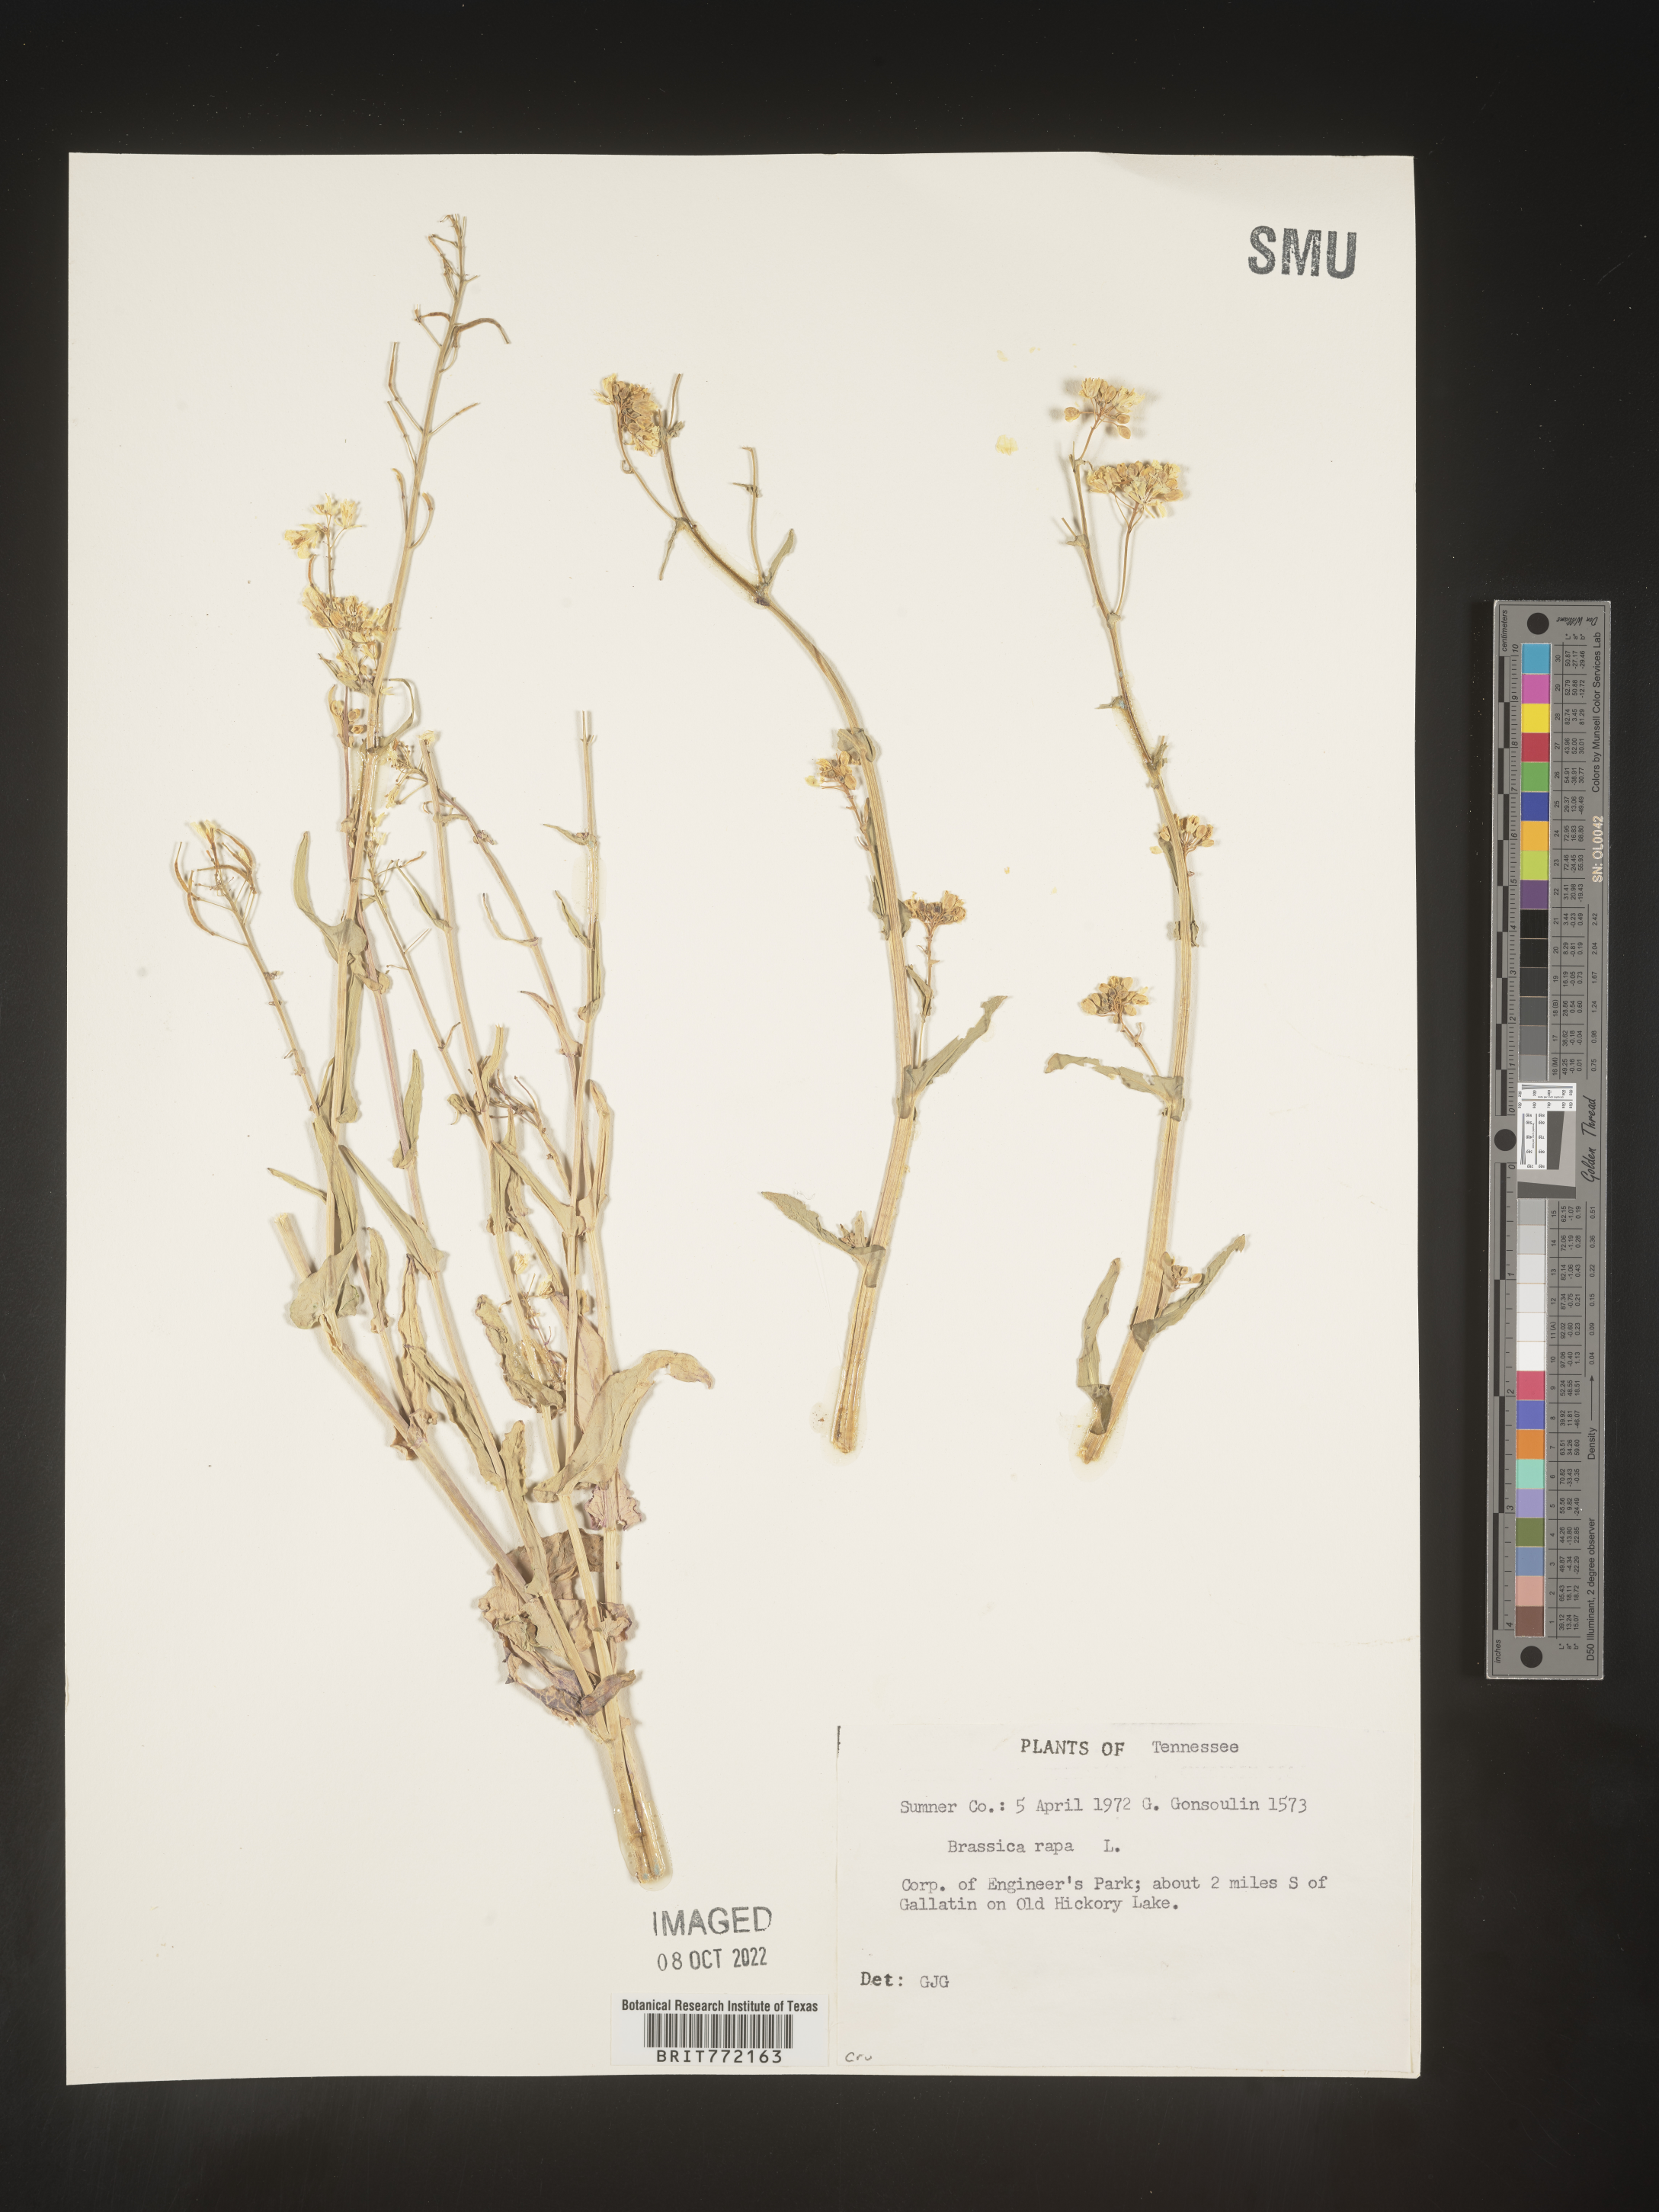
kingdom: Plantae
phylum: Tracheophyta
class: Magnoliopsida
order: Brassicales
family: Brassicaceae
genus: Brassica
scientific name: Brassica rapa
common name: Field mustard
